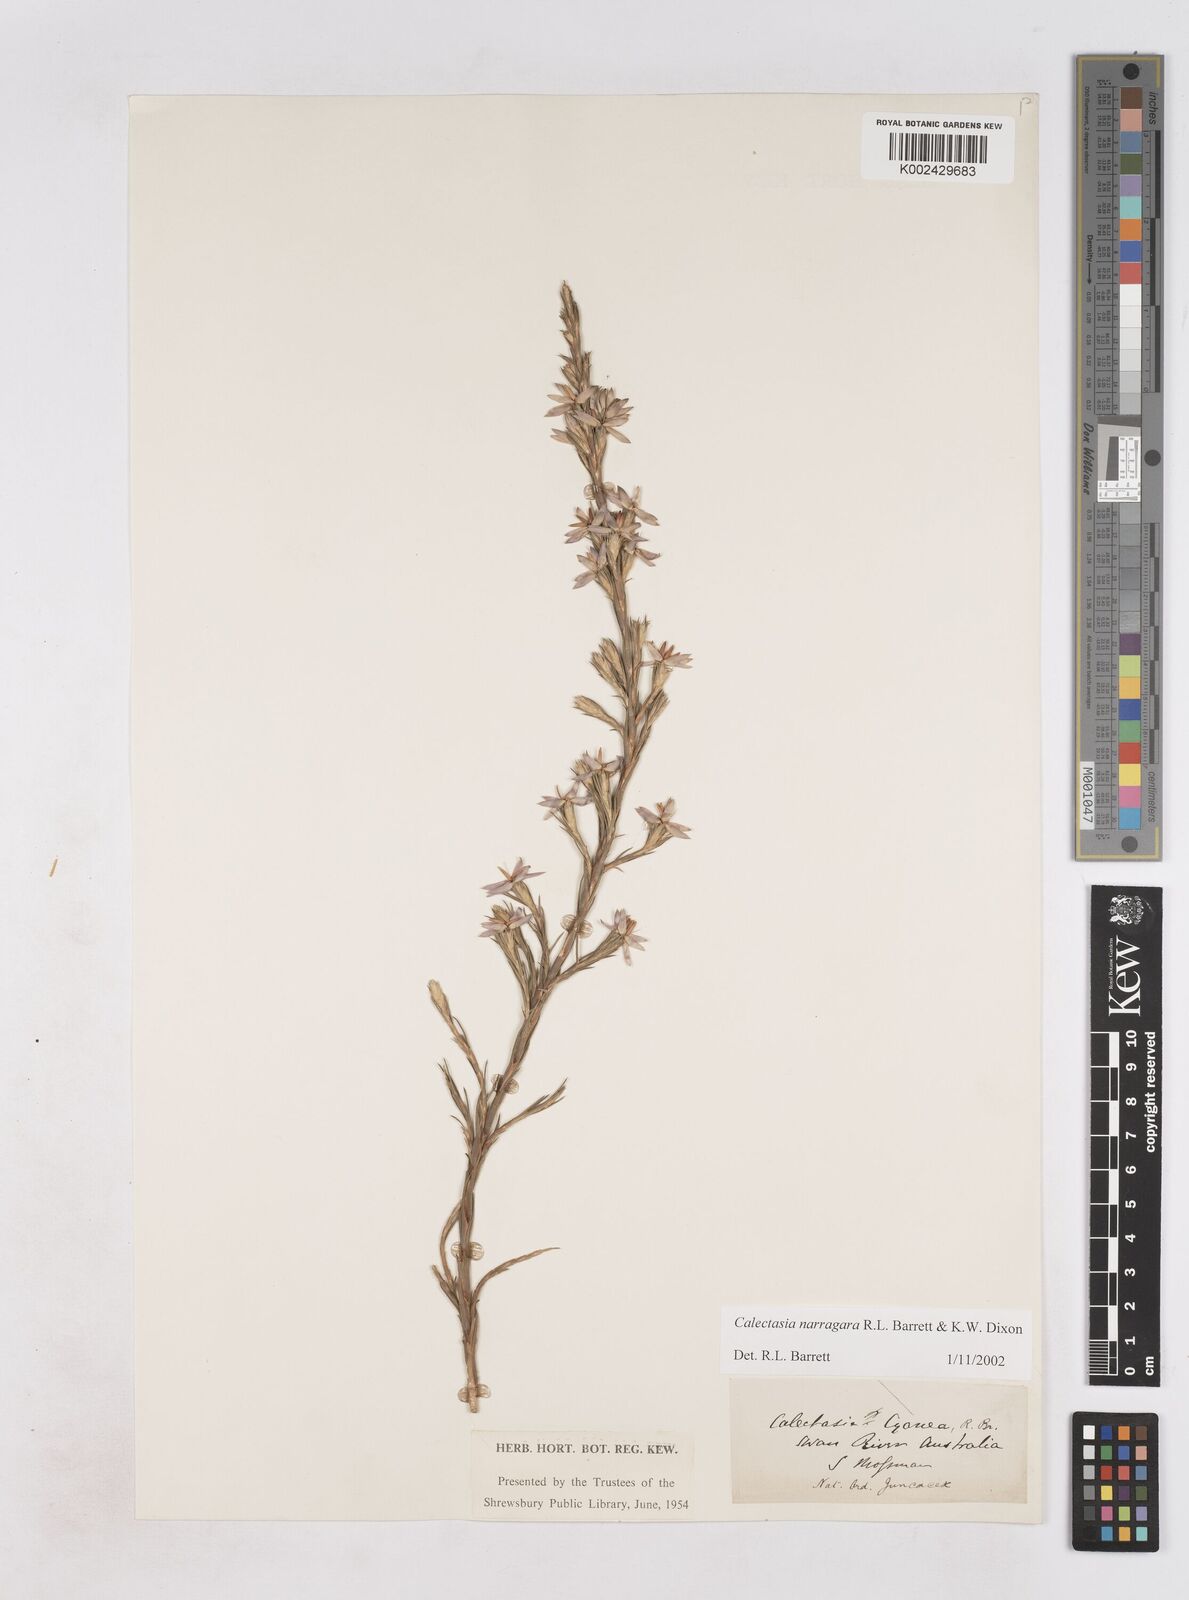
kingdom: Plantae
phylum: Tracheophyta
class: Liliopsida
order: Arecales
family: Dasypogonaceae
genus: Calectasia
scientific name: Calectasia narragara
